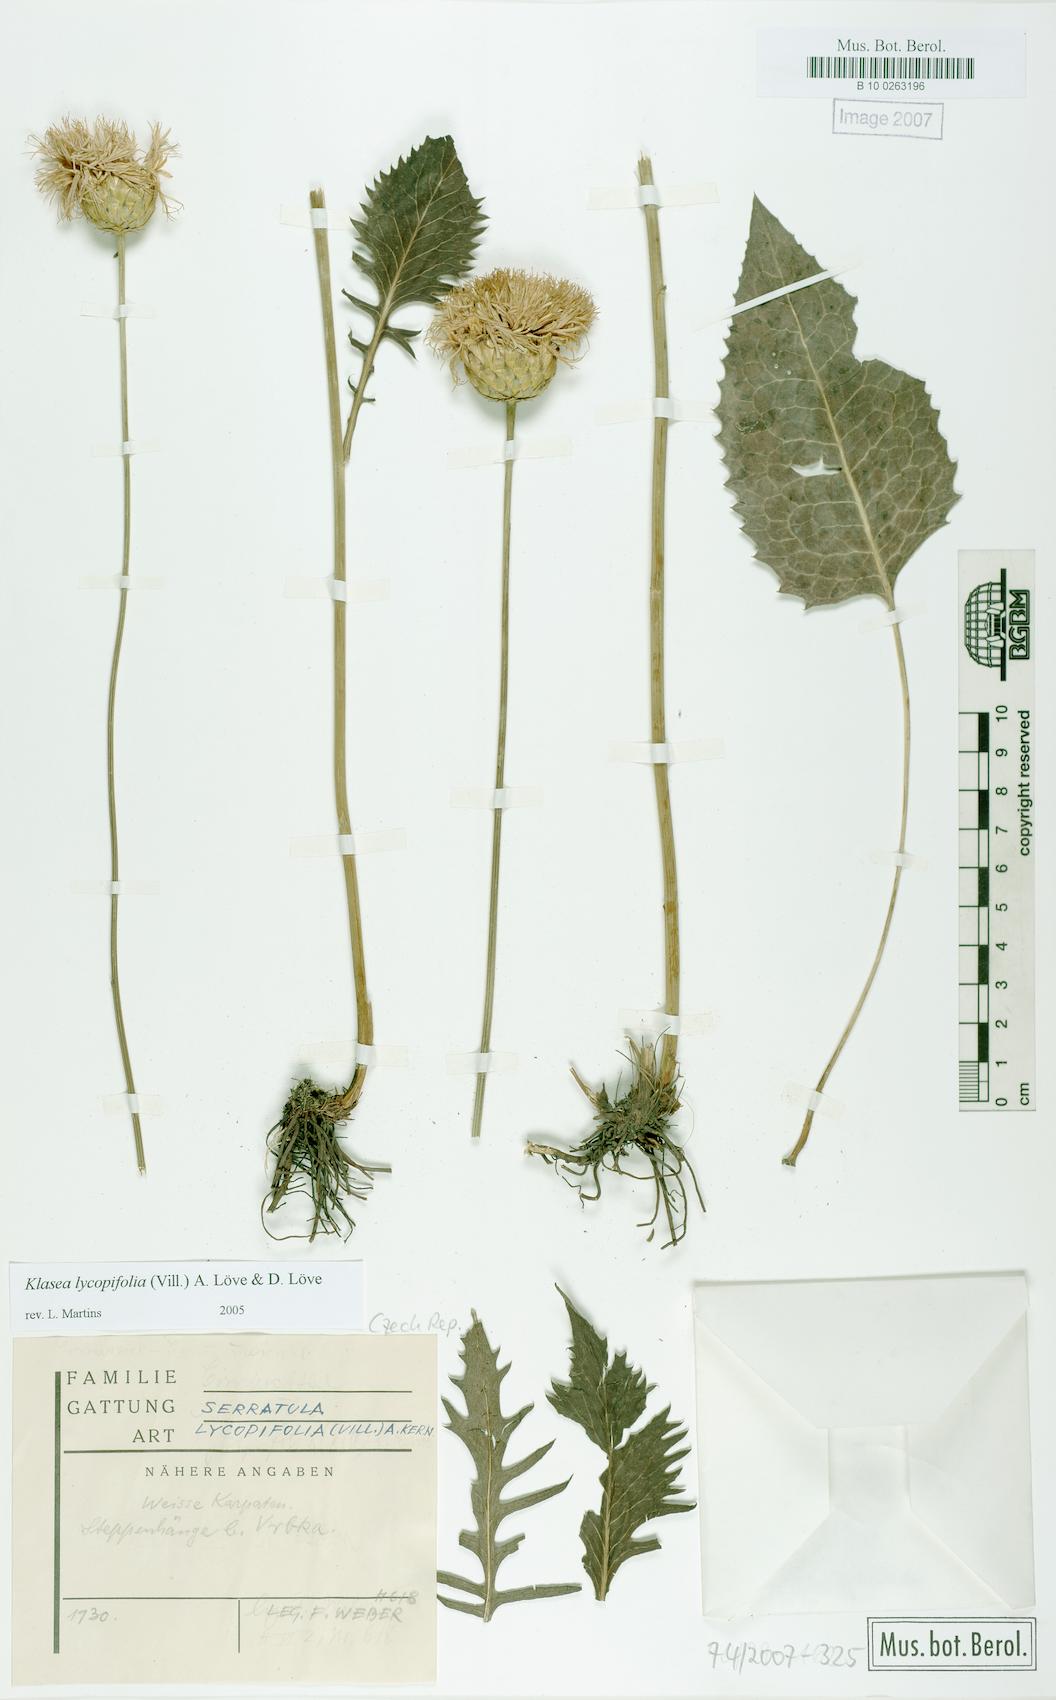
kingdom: Plantae
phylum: Tracheophyta
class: Magnoliopsida
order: Asterales
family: Asteraceae
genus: Klasea
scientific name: Klasea lycopifolia
